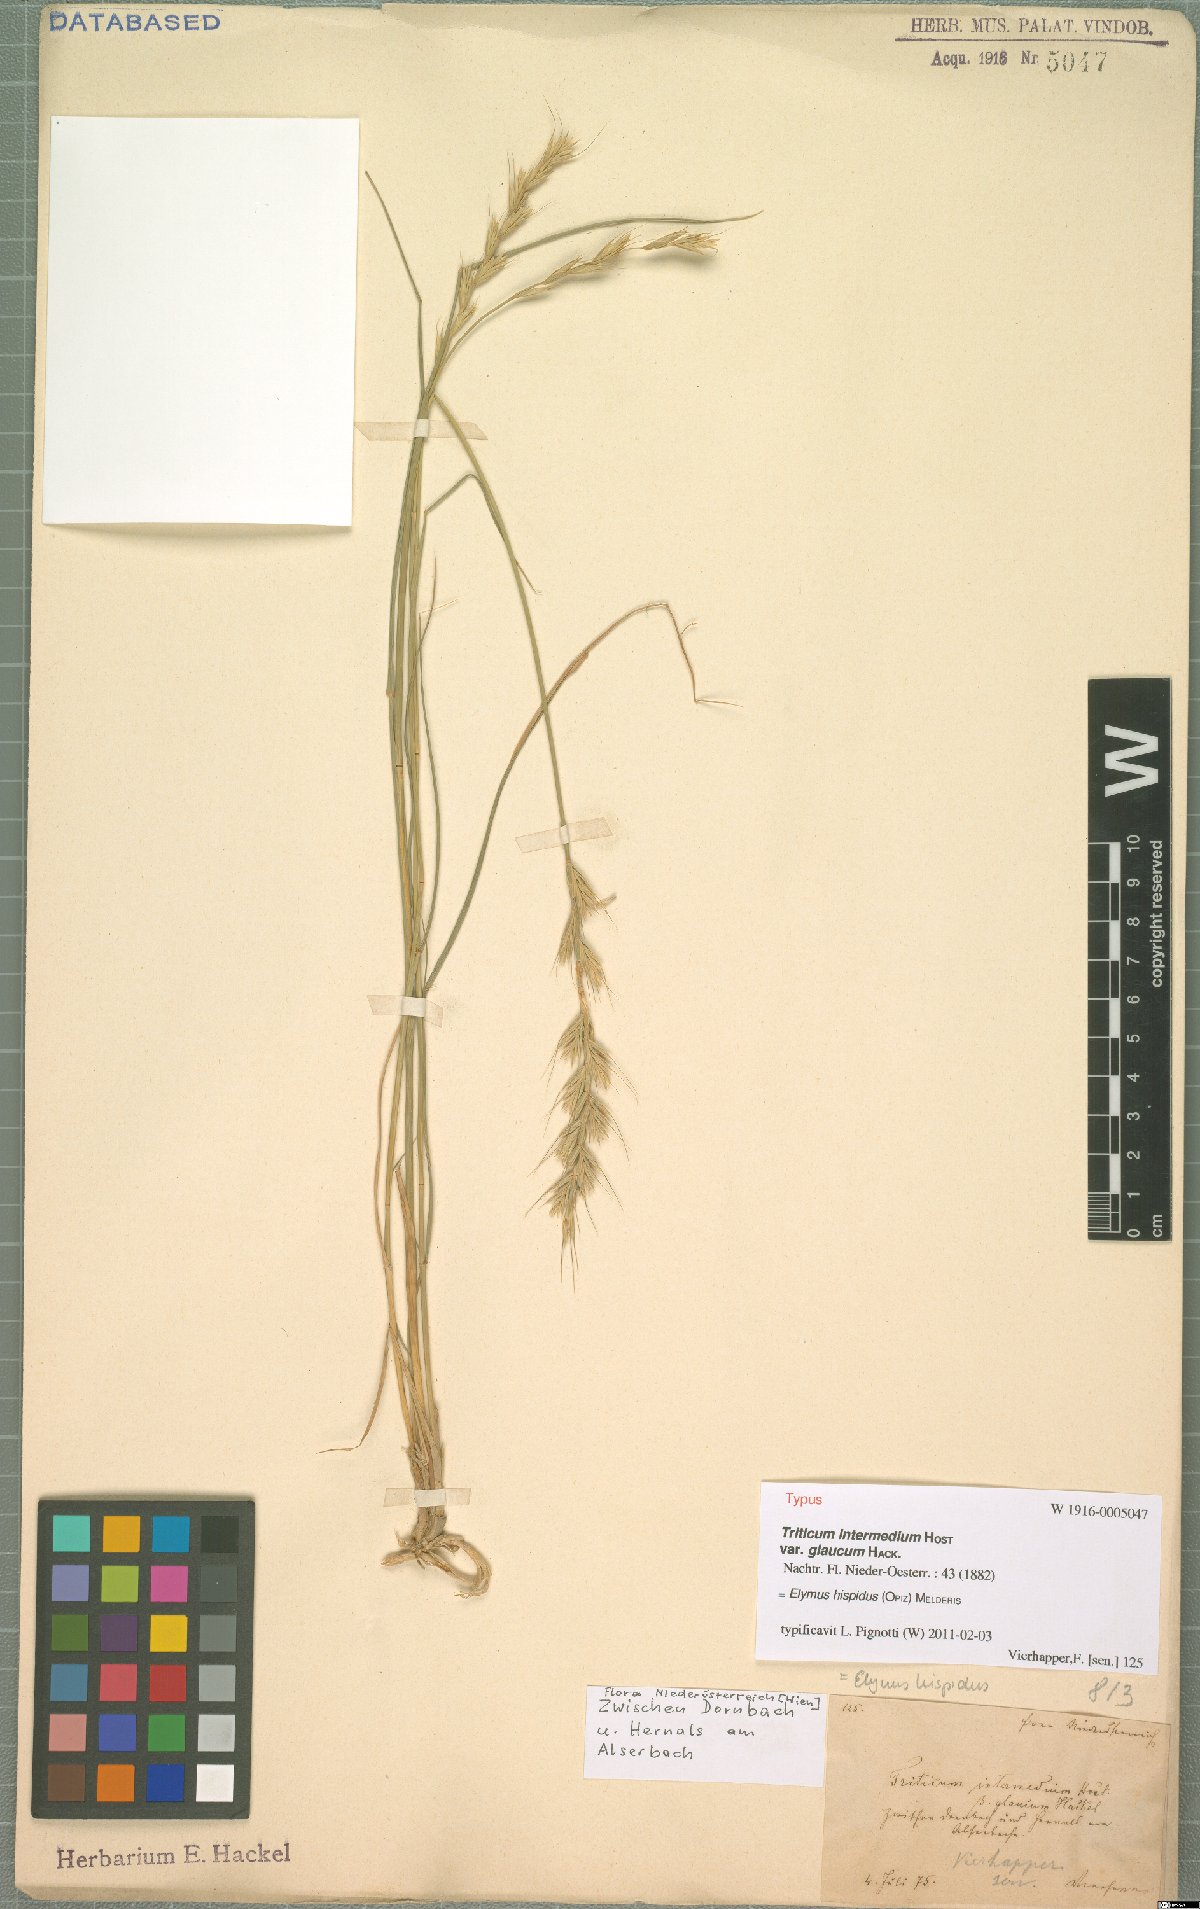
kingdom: Plantae
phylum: Tracheophyta
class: Liliopsida
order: Poales
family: Poaceae
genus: Thinopyrum
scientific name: Thinopyrum intermedium
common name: Intermediate wheatgrass
